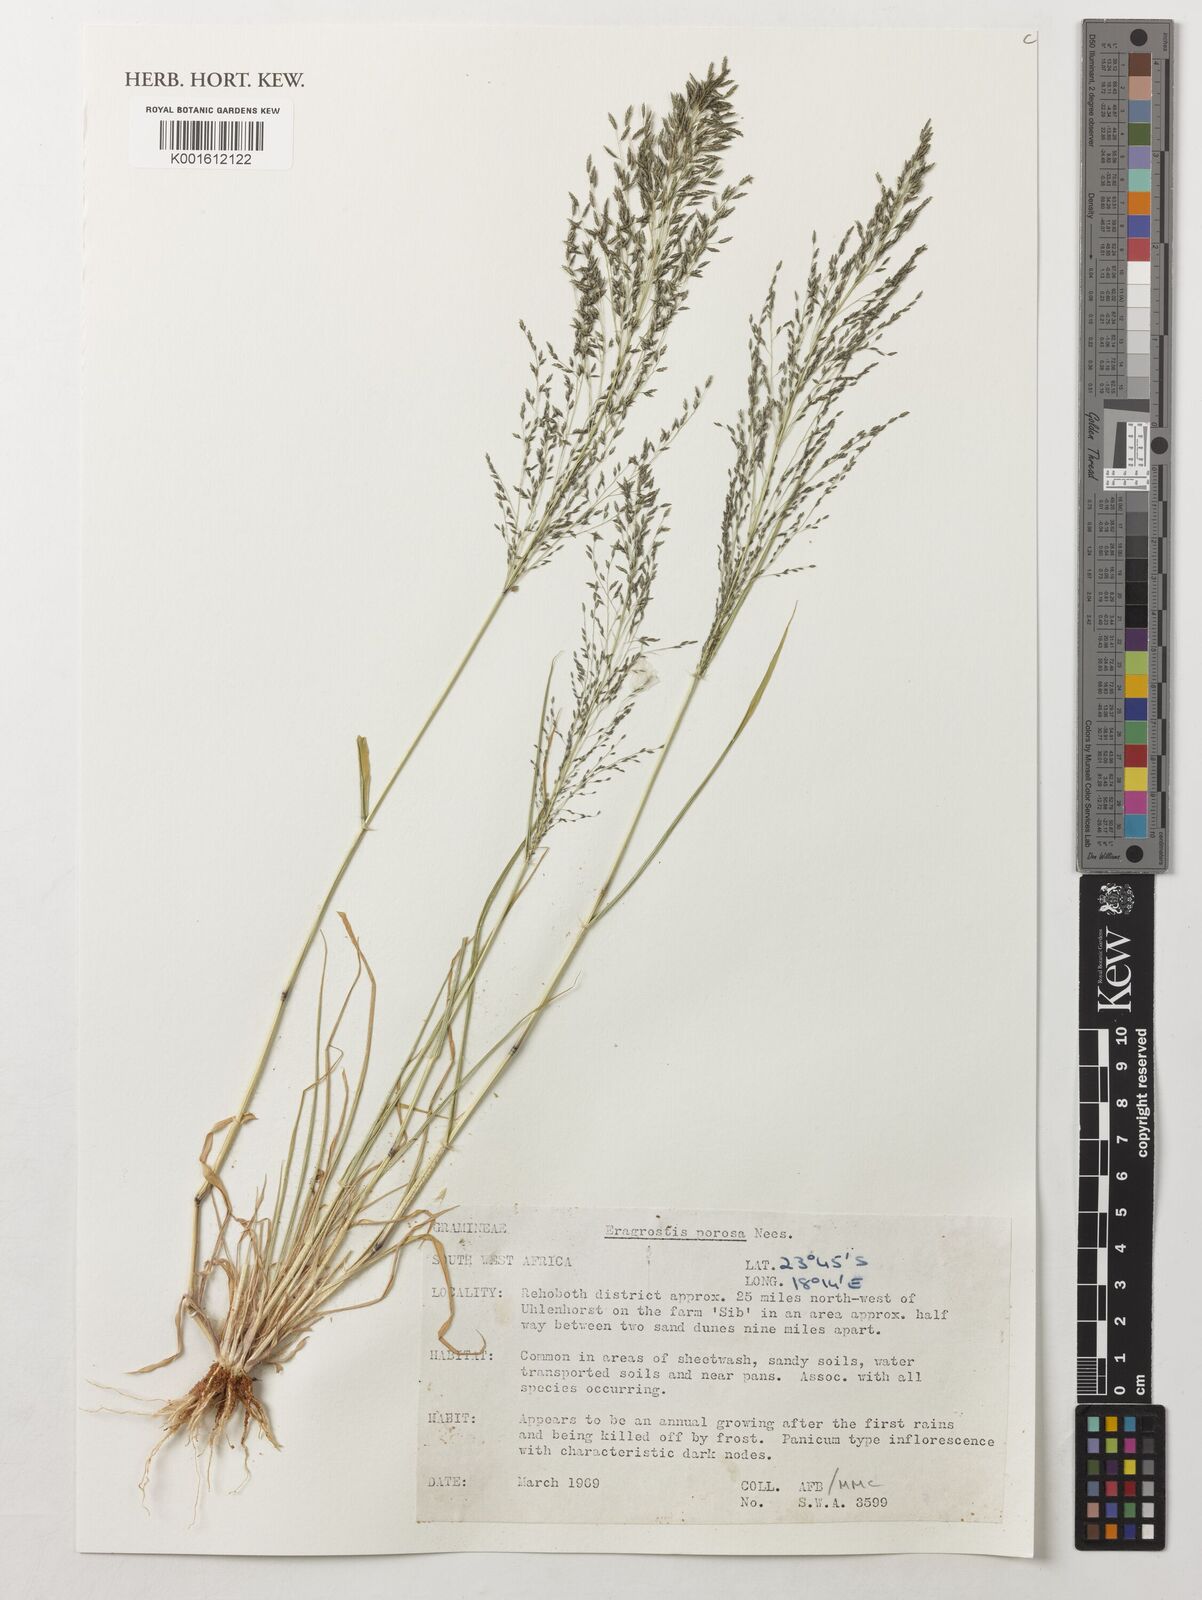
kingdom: Plantae
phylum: Tracheophyta
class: Liliopsida
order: Poales
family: Poaceae
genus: Eragrostis
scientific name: Eragrostis porosa
